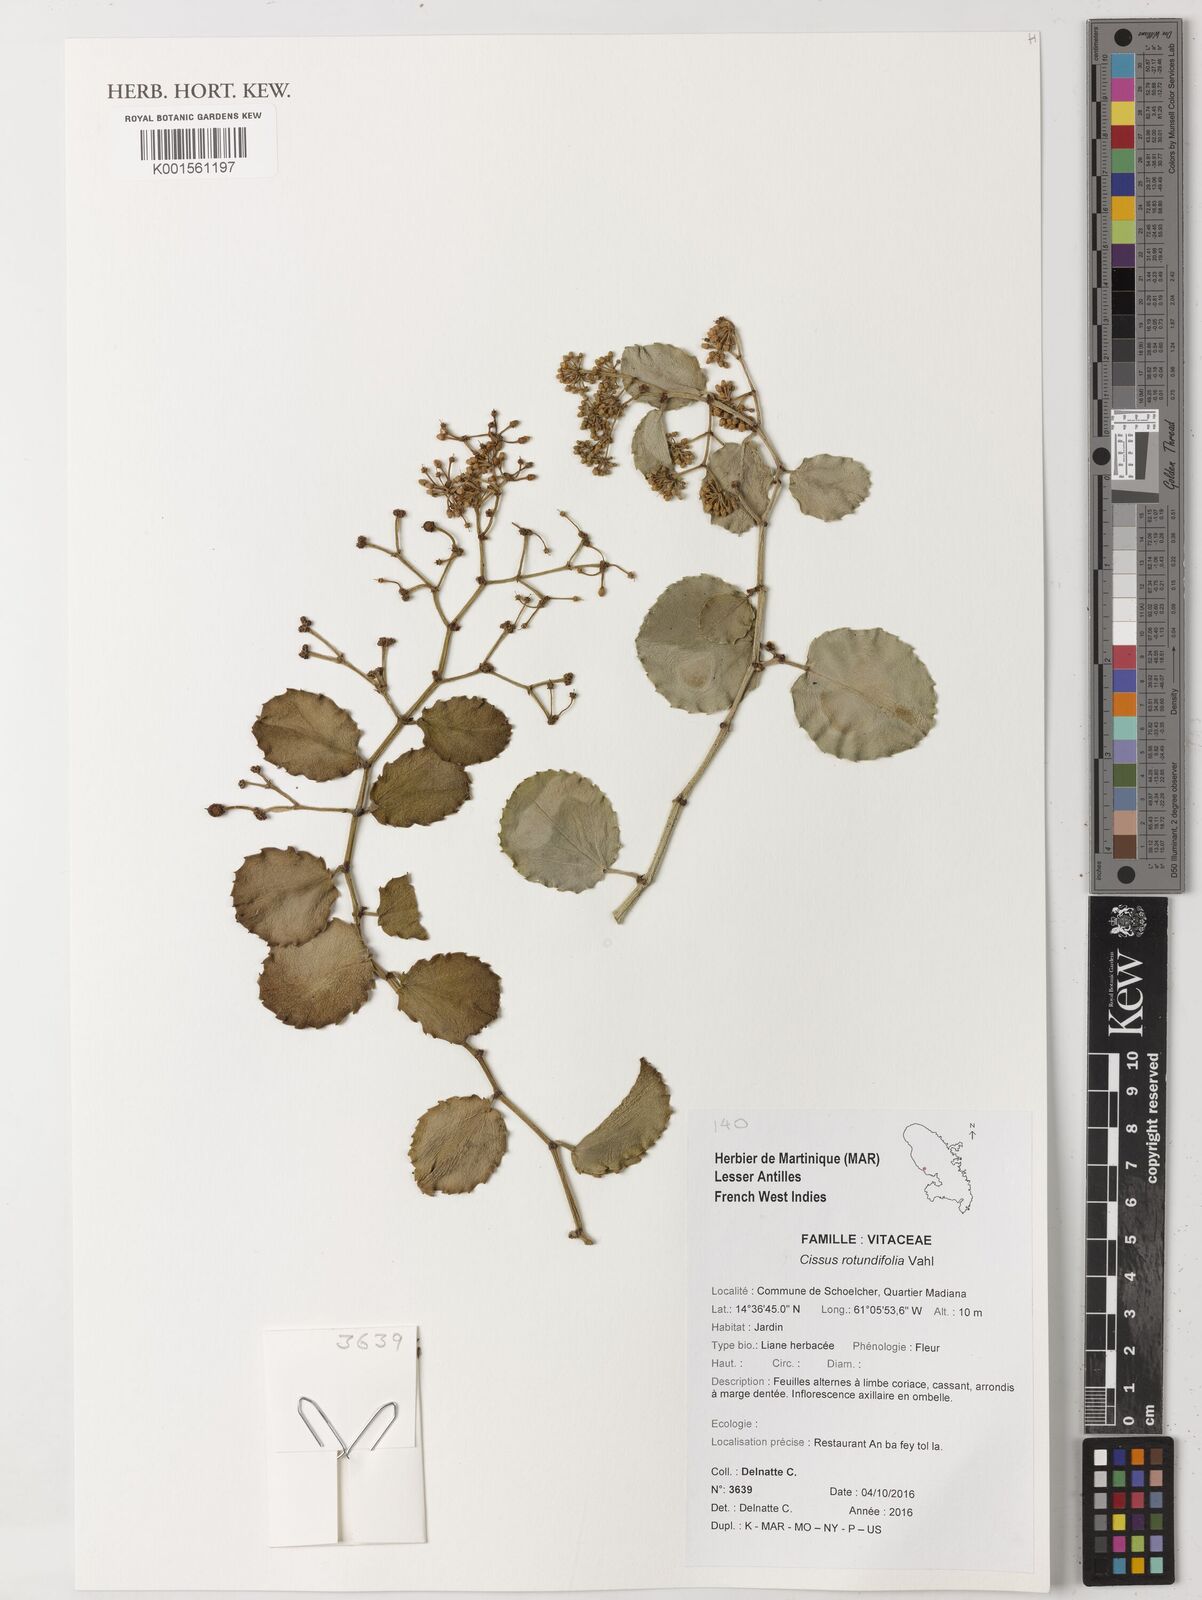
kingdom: Plantae
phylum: Tracheophyta
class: Magnoliopsida
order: Vitales
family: Vitaceae
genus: Cissus
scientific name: Cissus rotundifolia
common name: Arabian wax cissus
